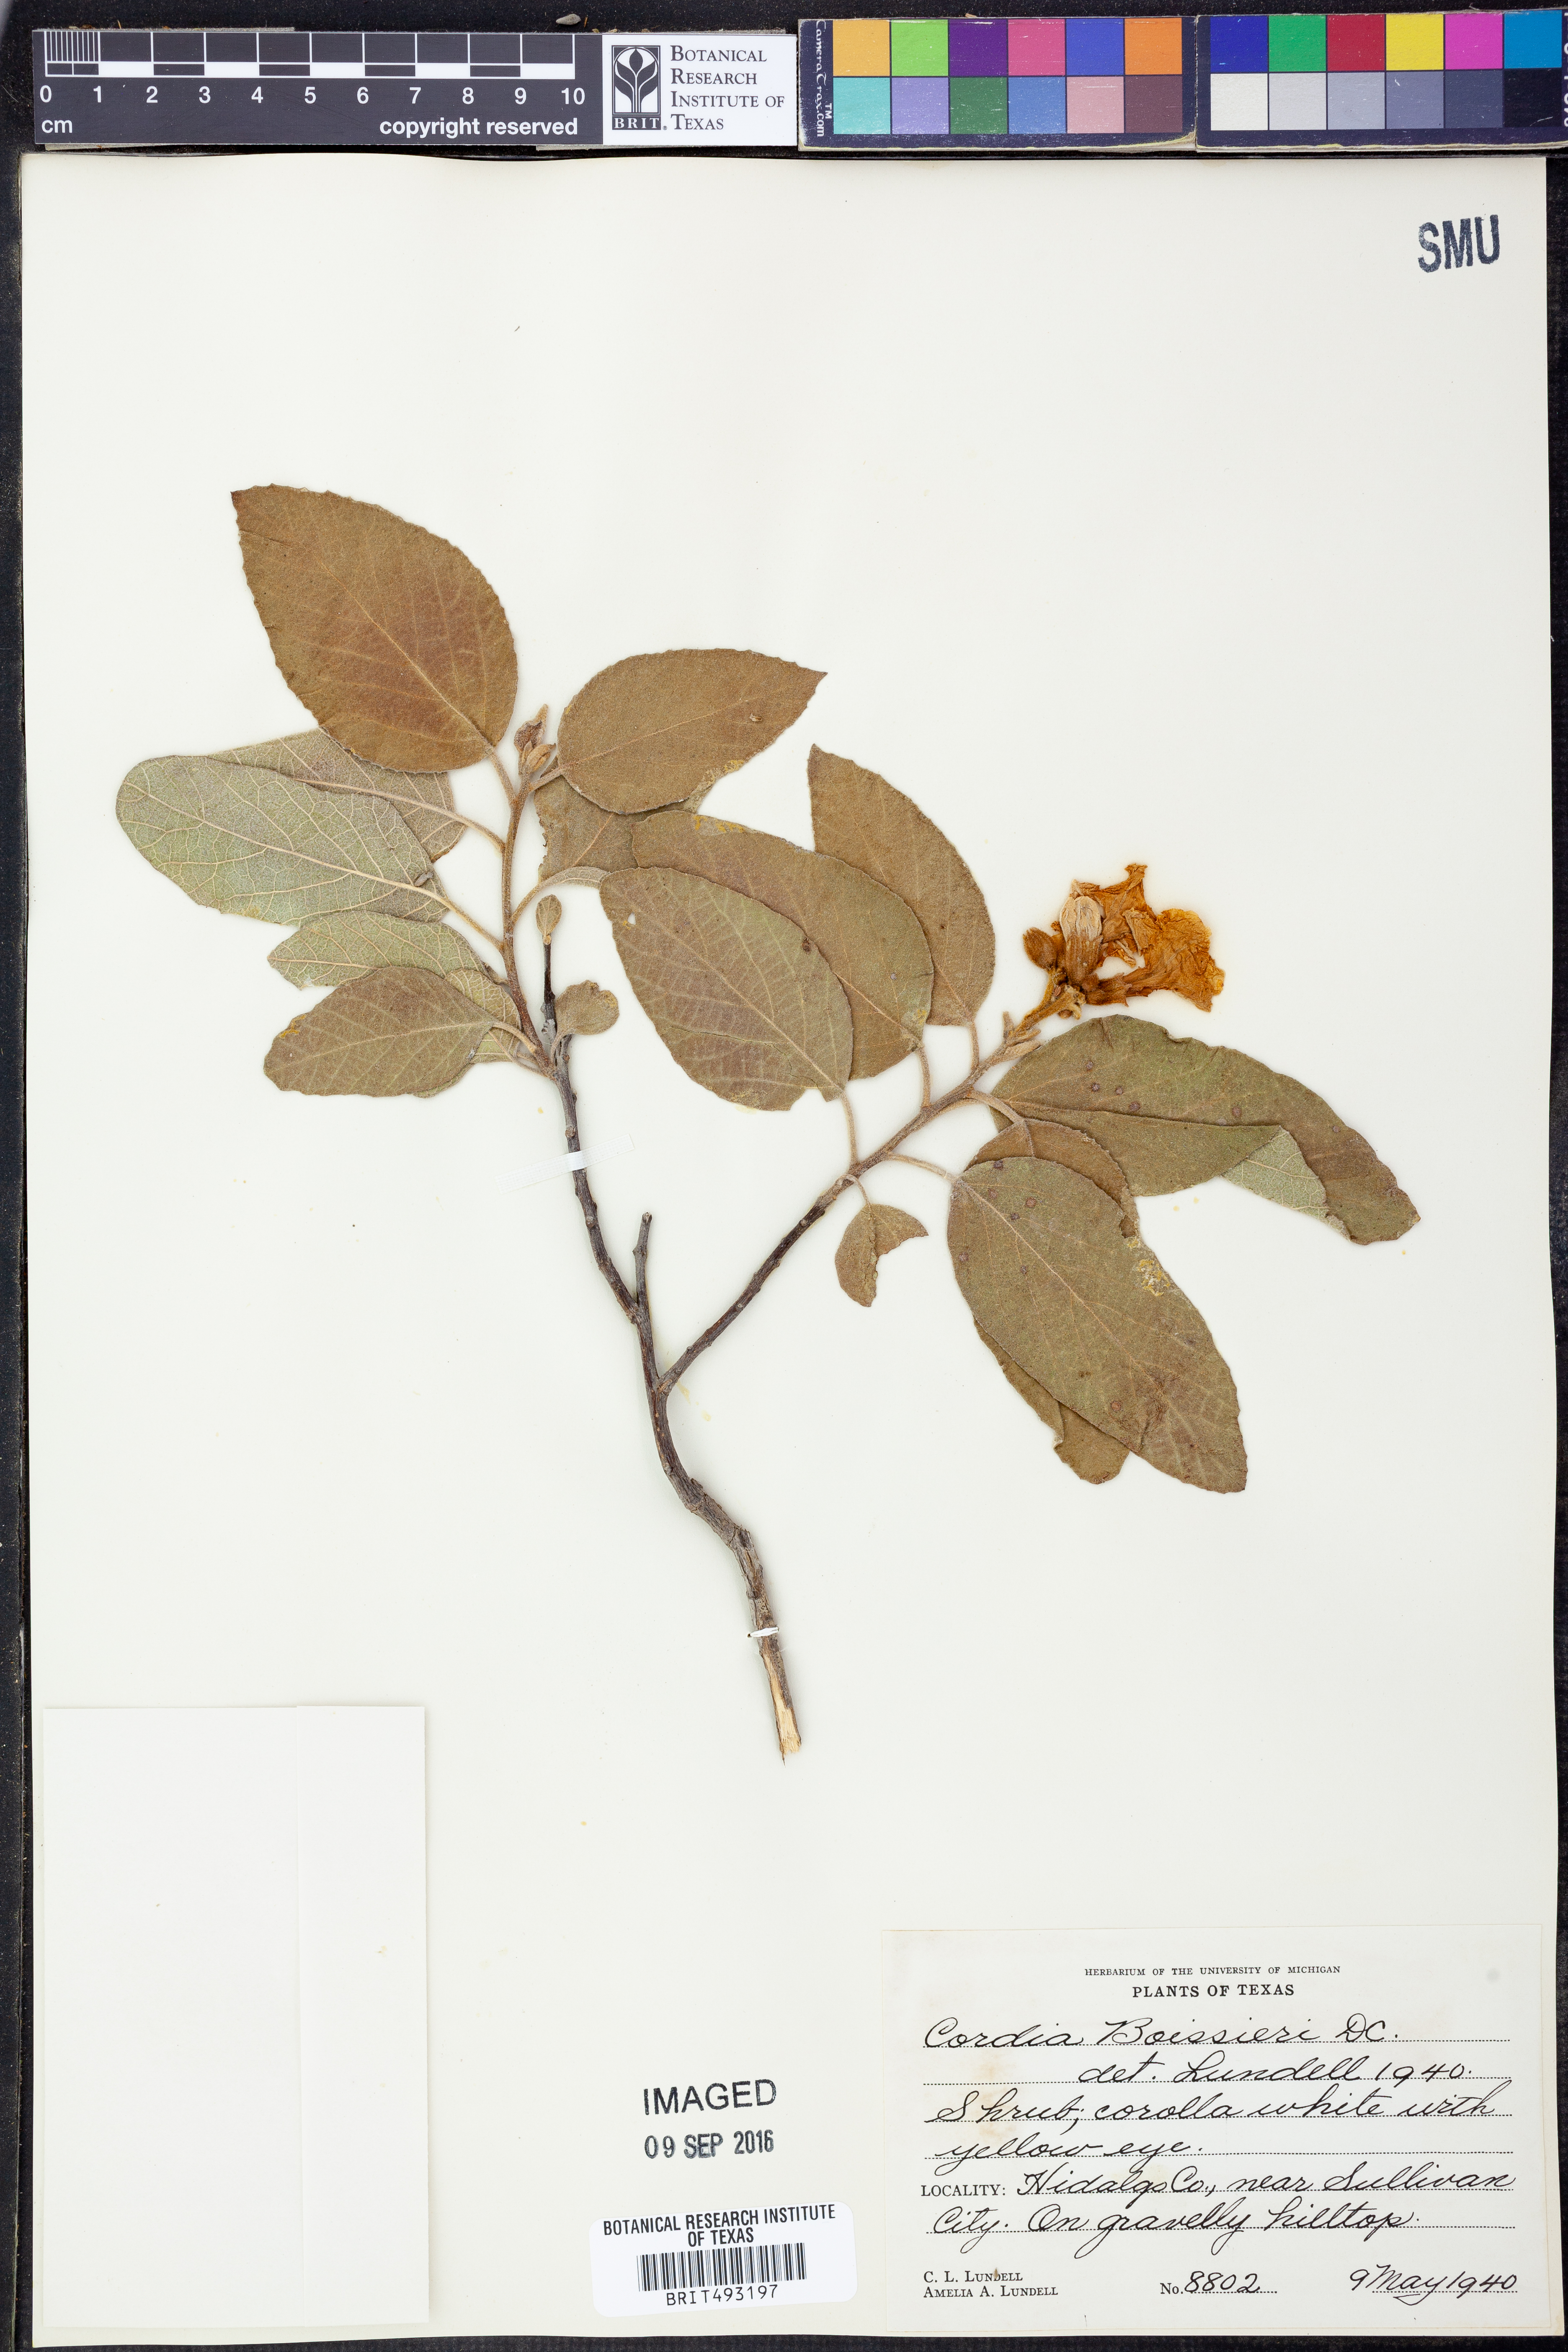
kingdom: Plantae
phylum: Tracheophyta
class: Magnoliopsida
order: Boraginales
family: Cordiaceae
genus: Cordia
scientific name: Cordia boissieri
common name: Mexican-olive
